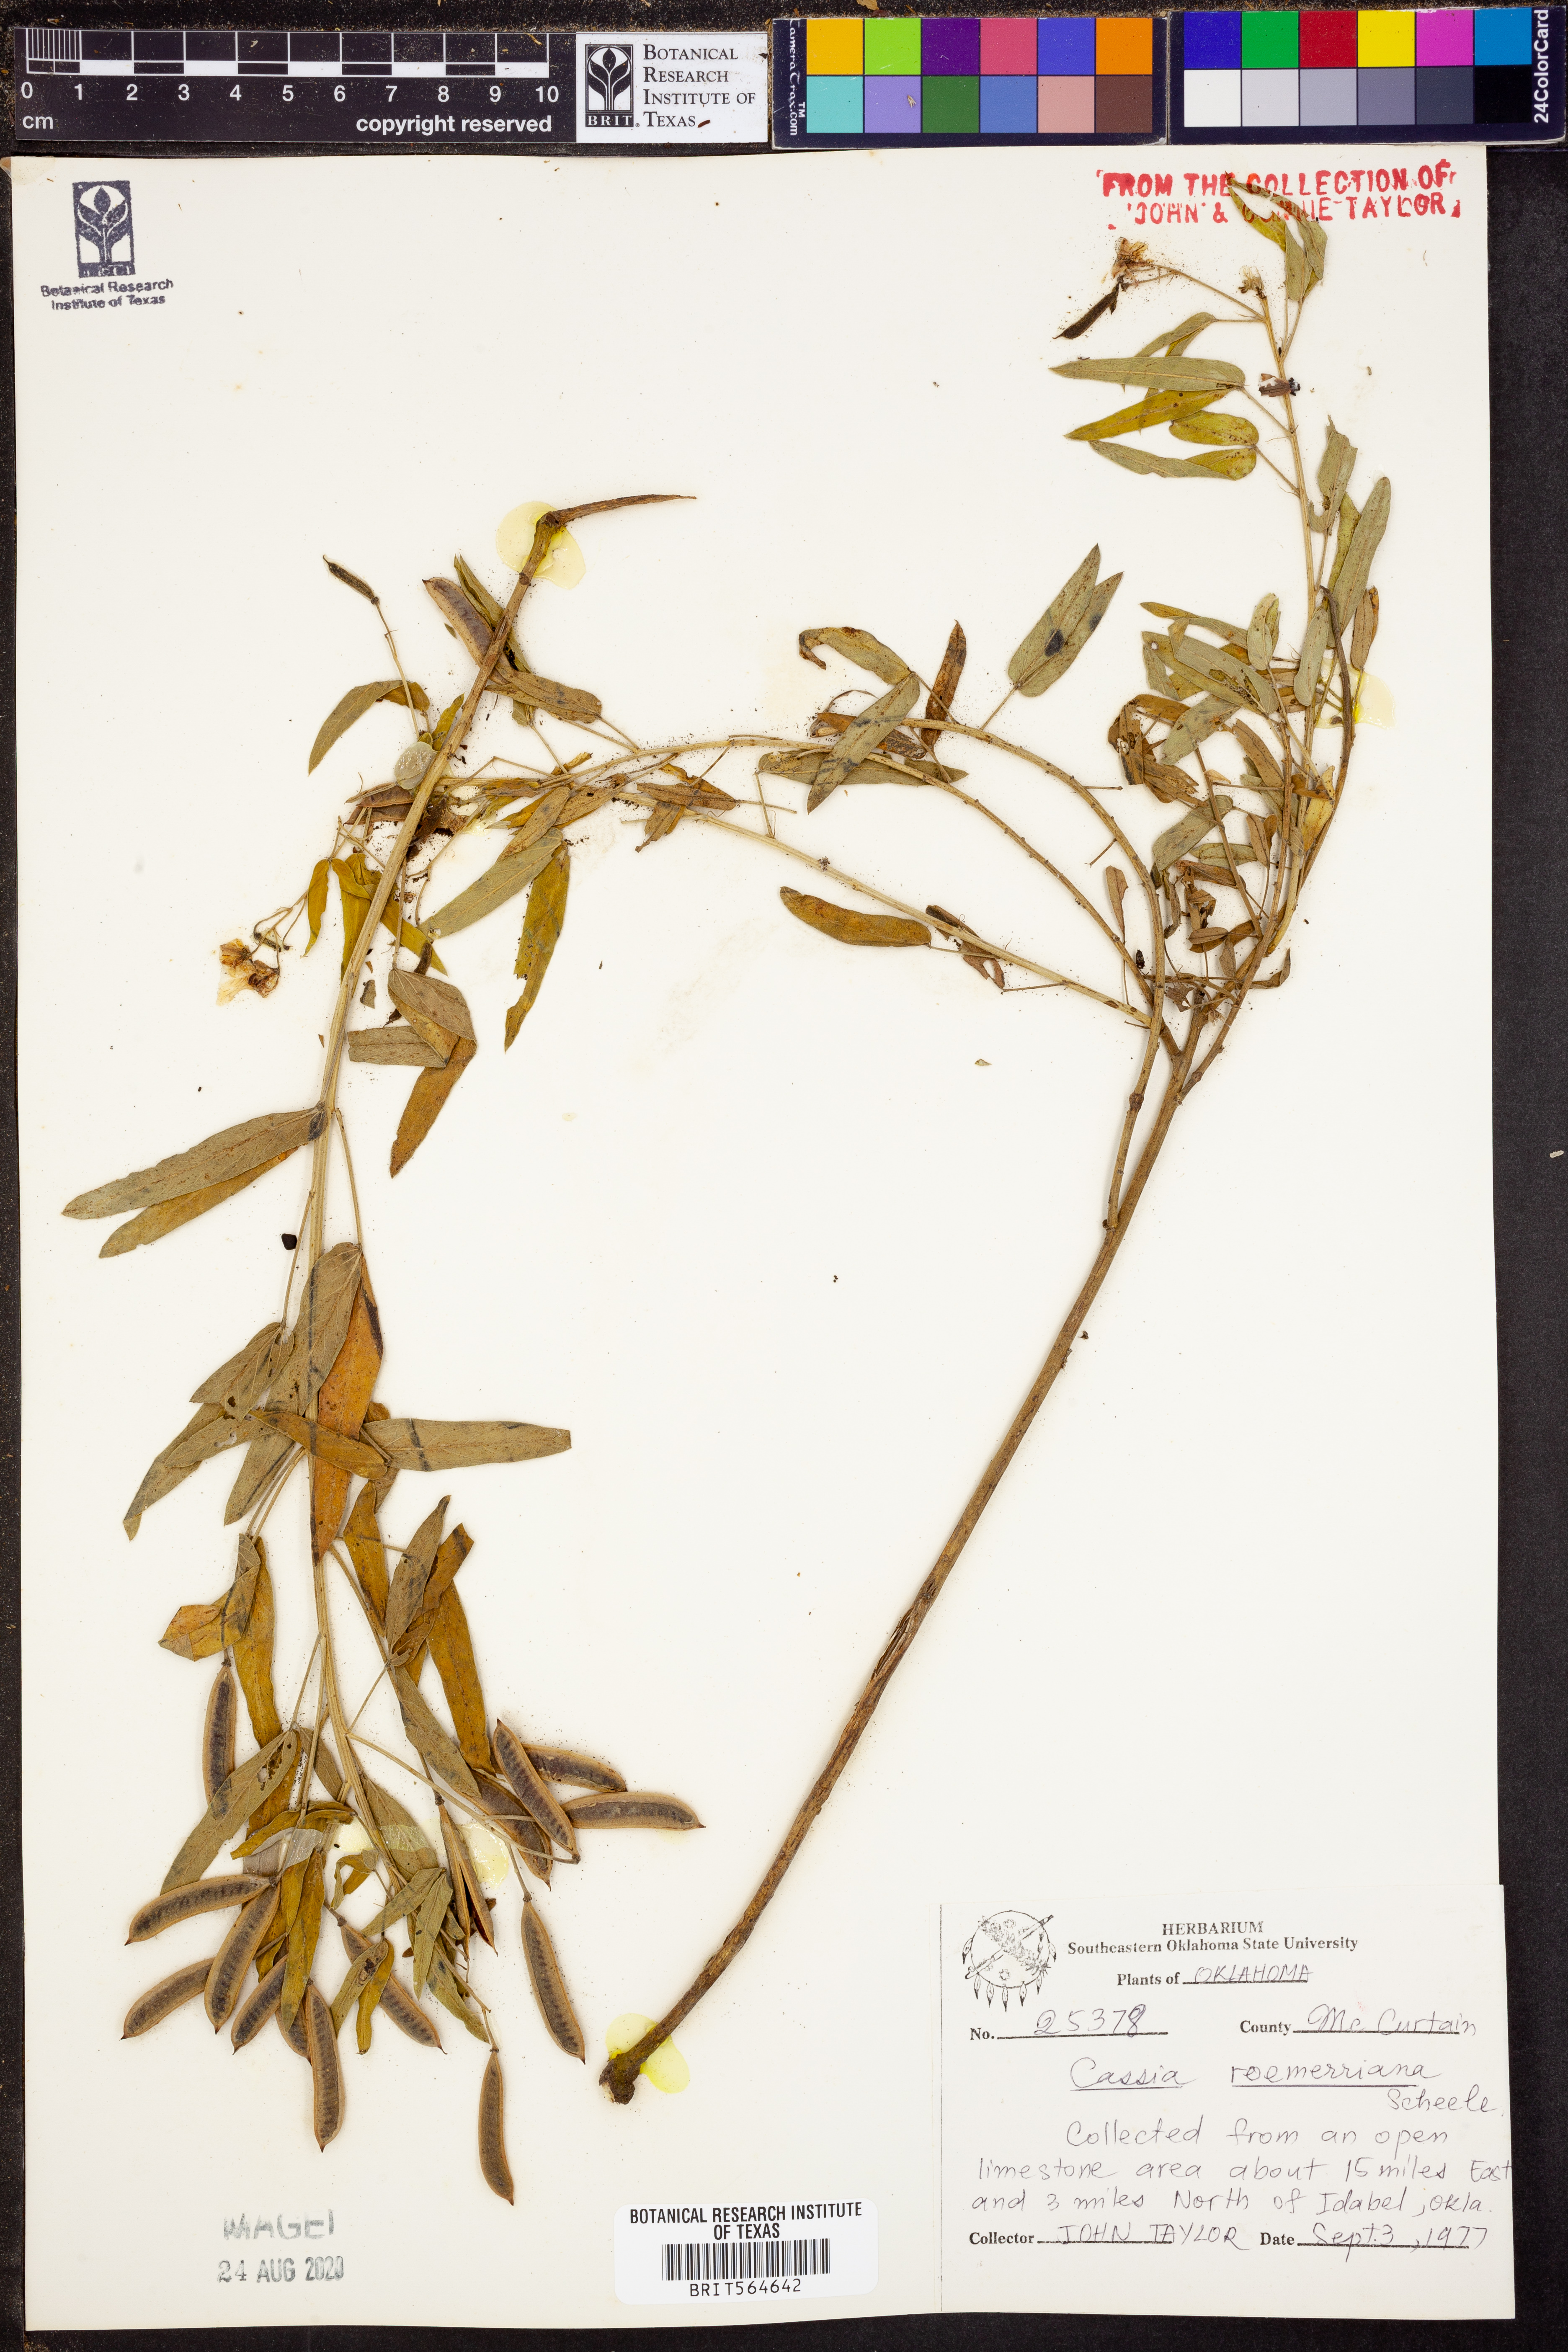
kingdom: Plantae
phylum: Tracheophyta
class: Magnoliopsida
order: Fabales
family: Fabaceae
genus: Senna
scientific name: Senna roemeriana
